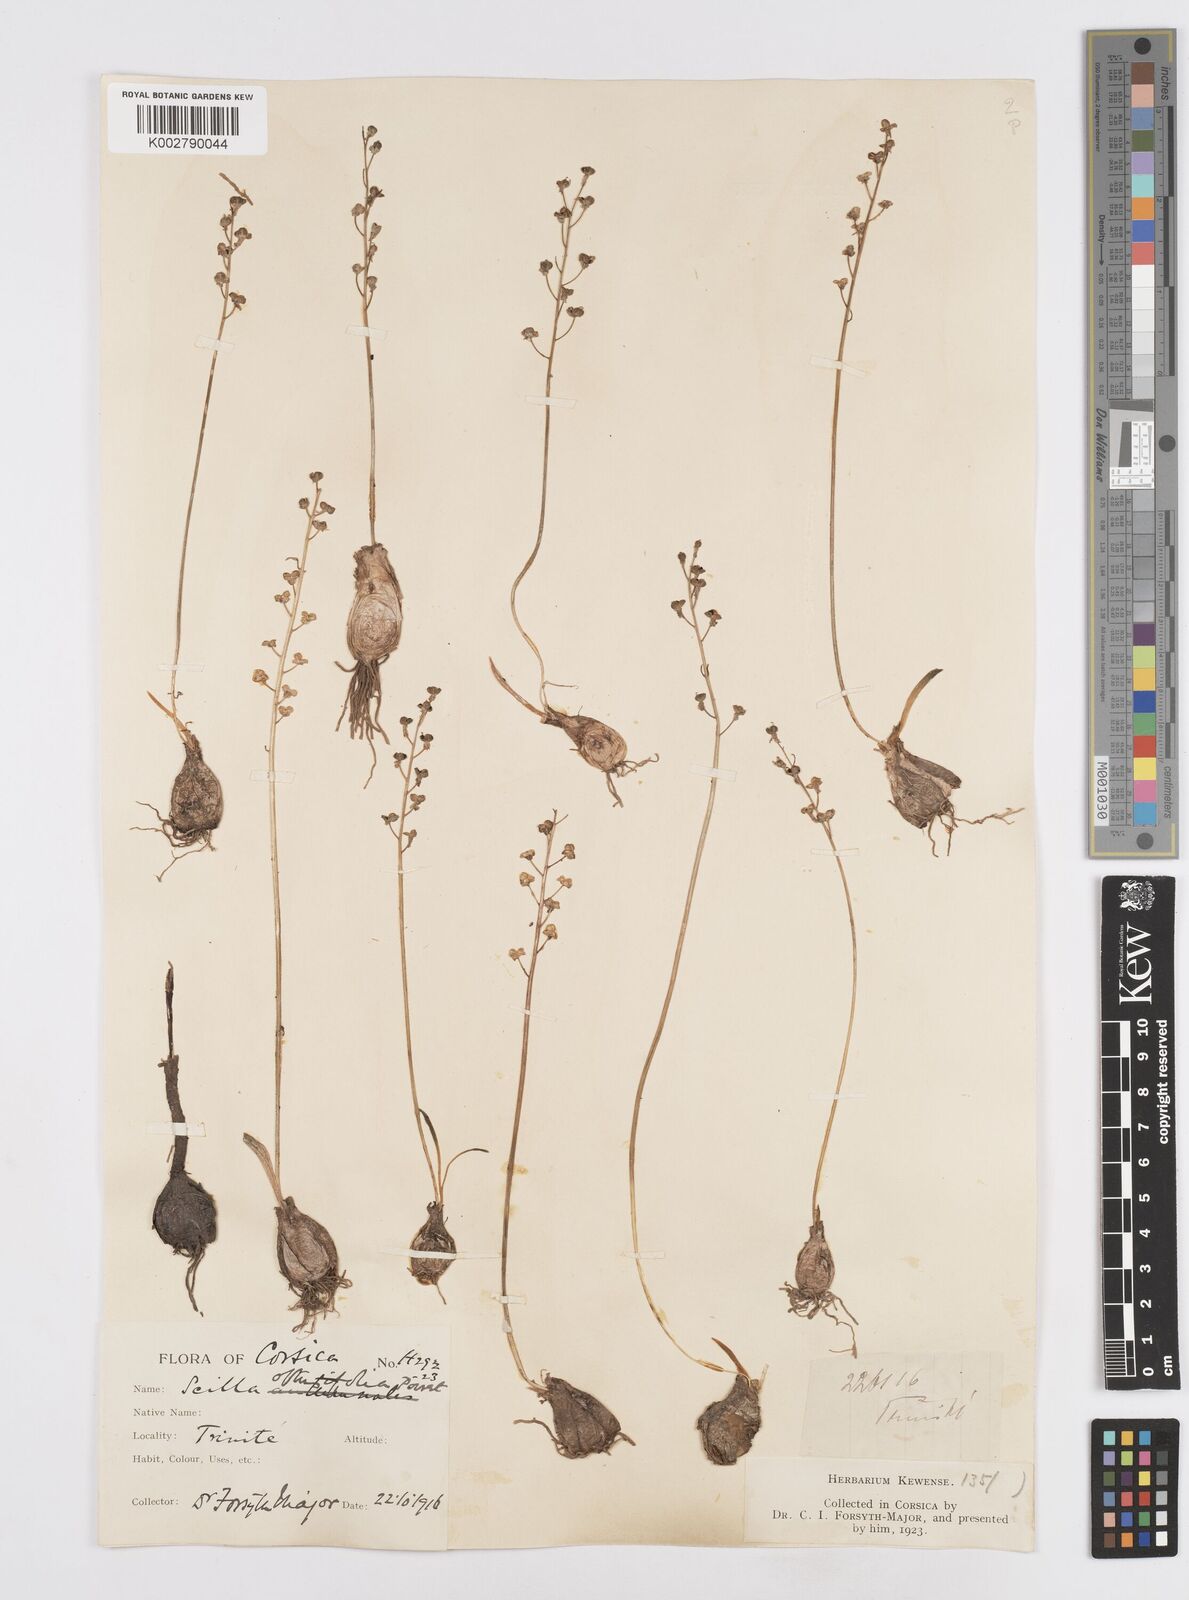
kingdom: Plantae
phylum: Tracheophyta
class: Liliopsida
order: Asparagales
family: Asparagaceae
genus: Prospero
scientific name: Prospero obtusifolium
